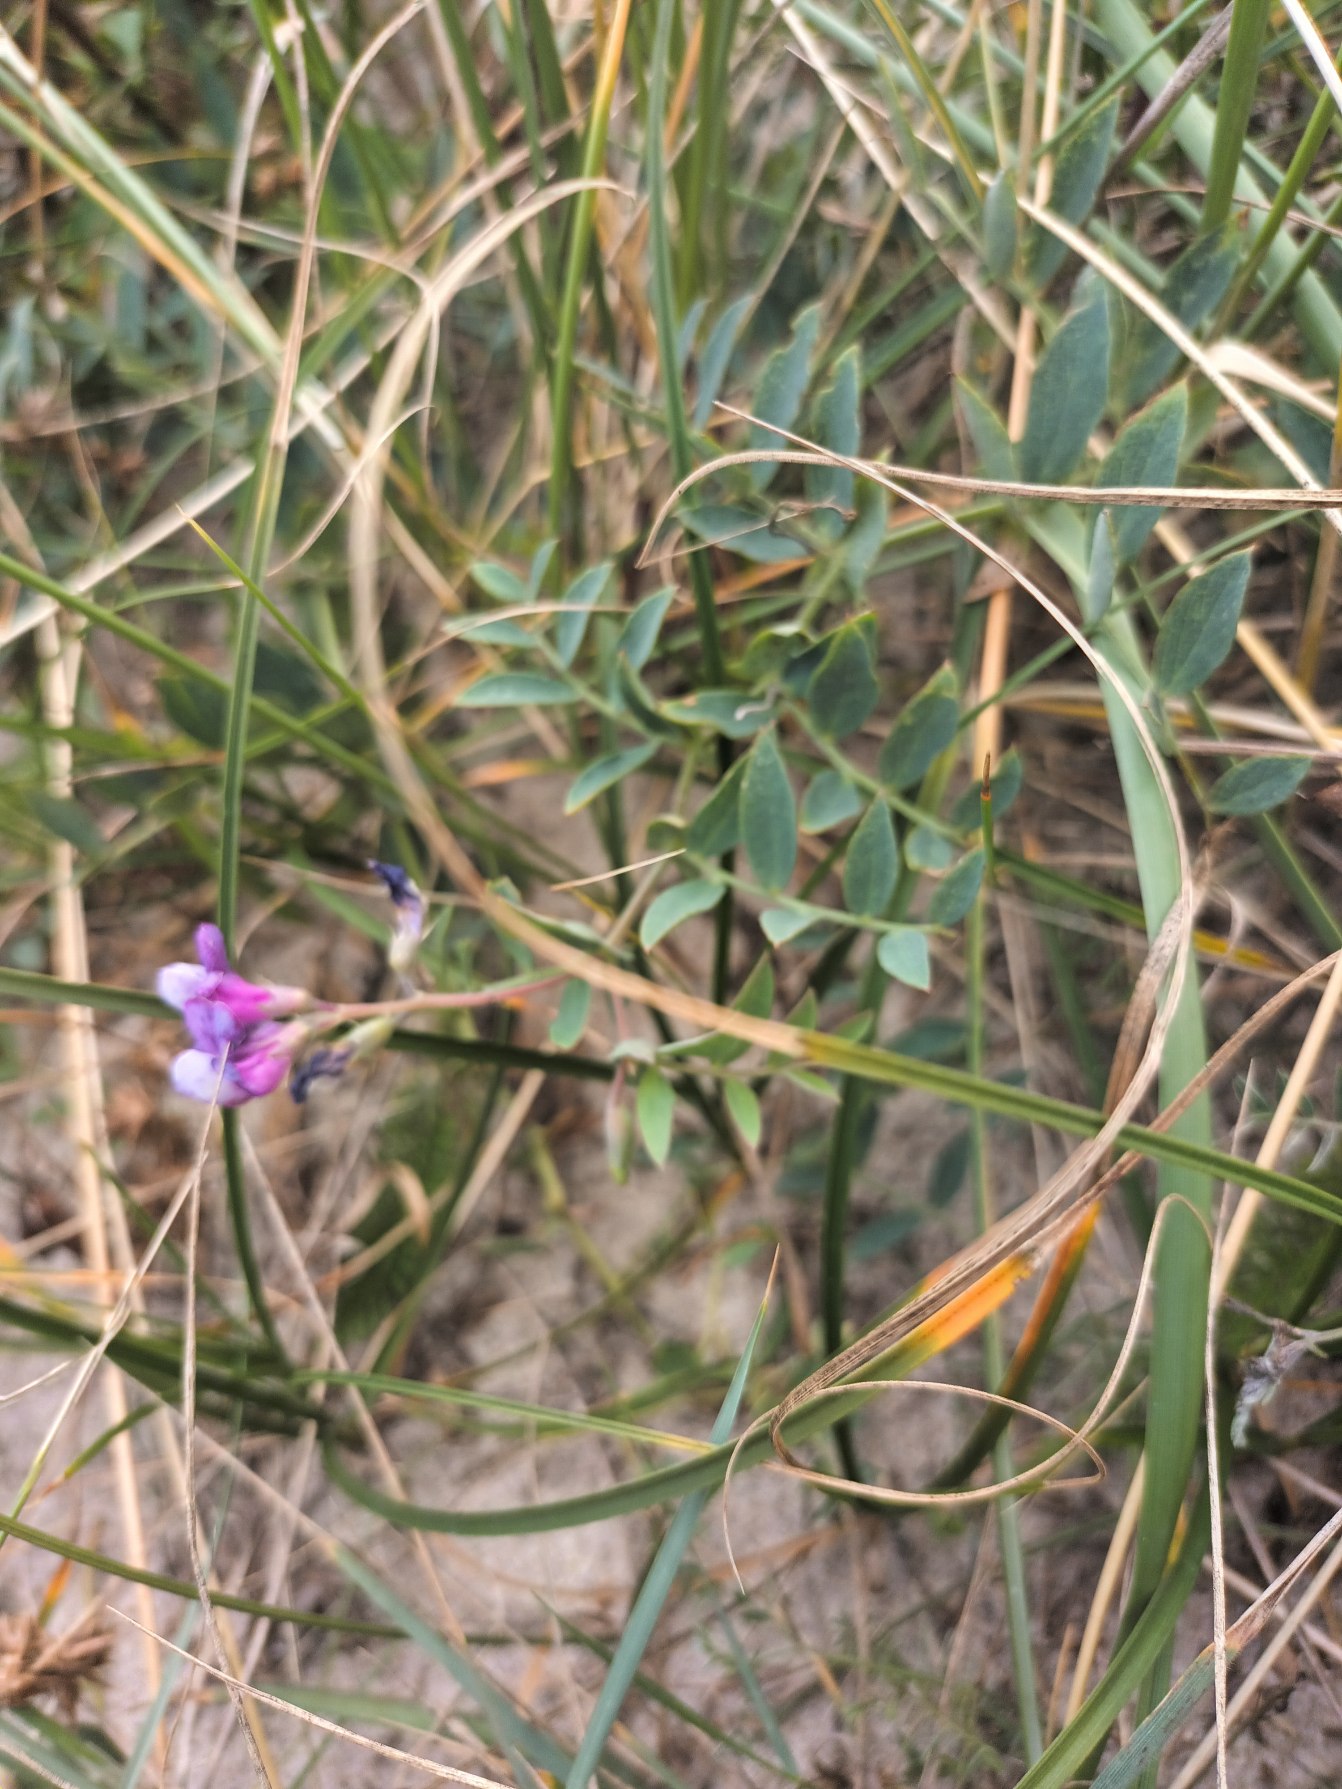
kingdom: Plantae
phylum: Tracheophyta
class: Magnoliopsida
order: Fabales
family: Fabaceae
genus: Lathyrus
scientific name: Lathyrus japonicus
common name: Klit-fladbælg
